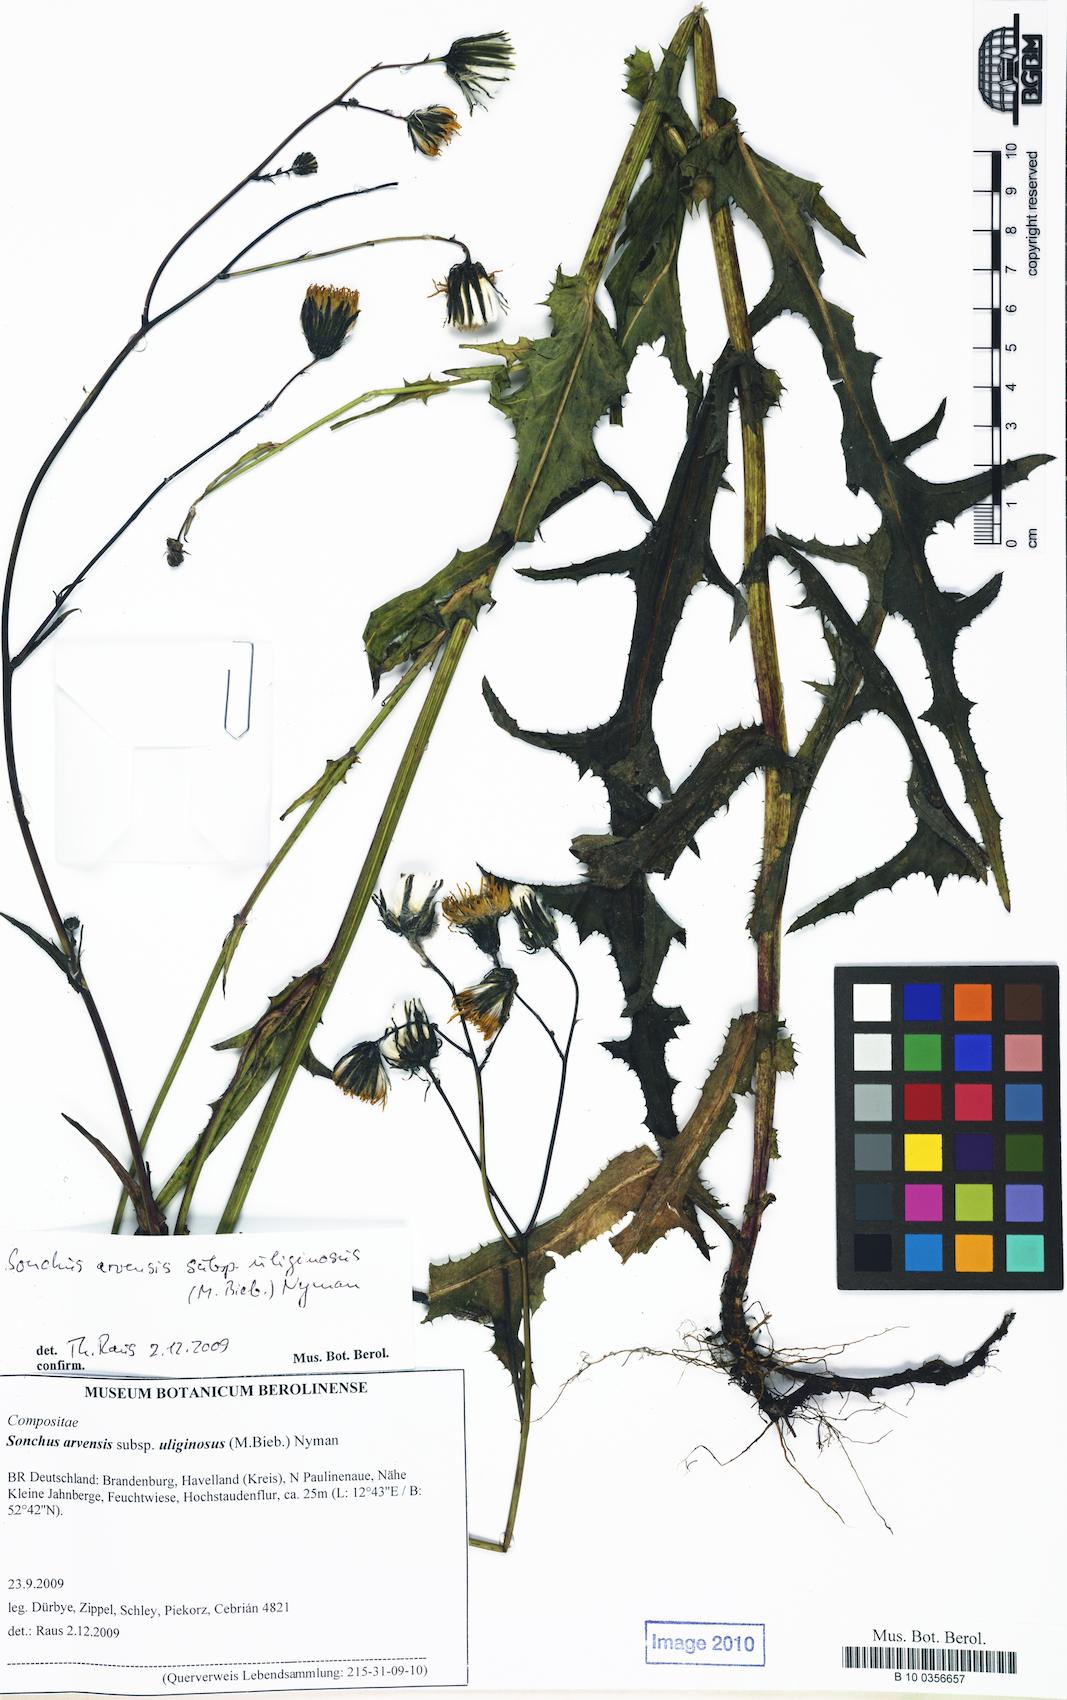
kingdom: Plantae
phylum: Tracheophyta
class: Magnoliopsida
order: Asterales
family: Asteraceae
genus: Sonchus
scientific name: Sonchus arvensis
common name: Perennial sow-thistle
